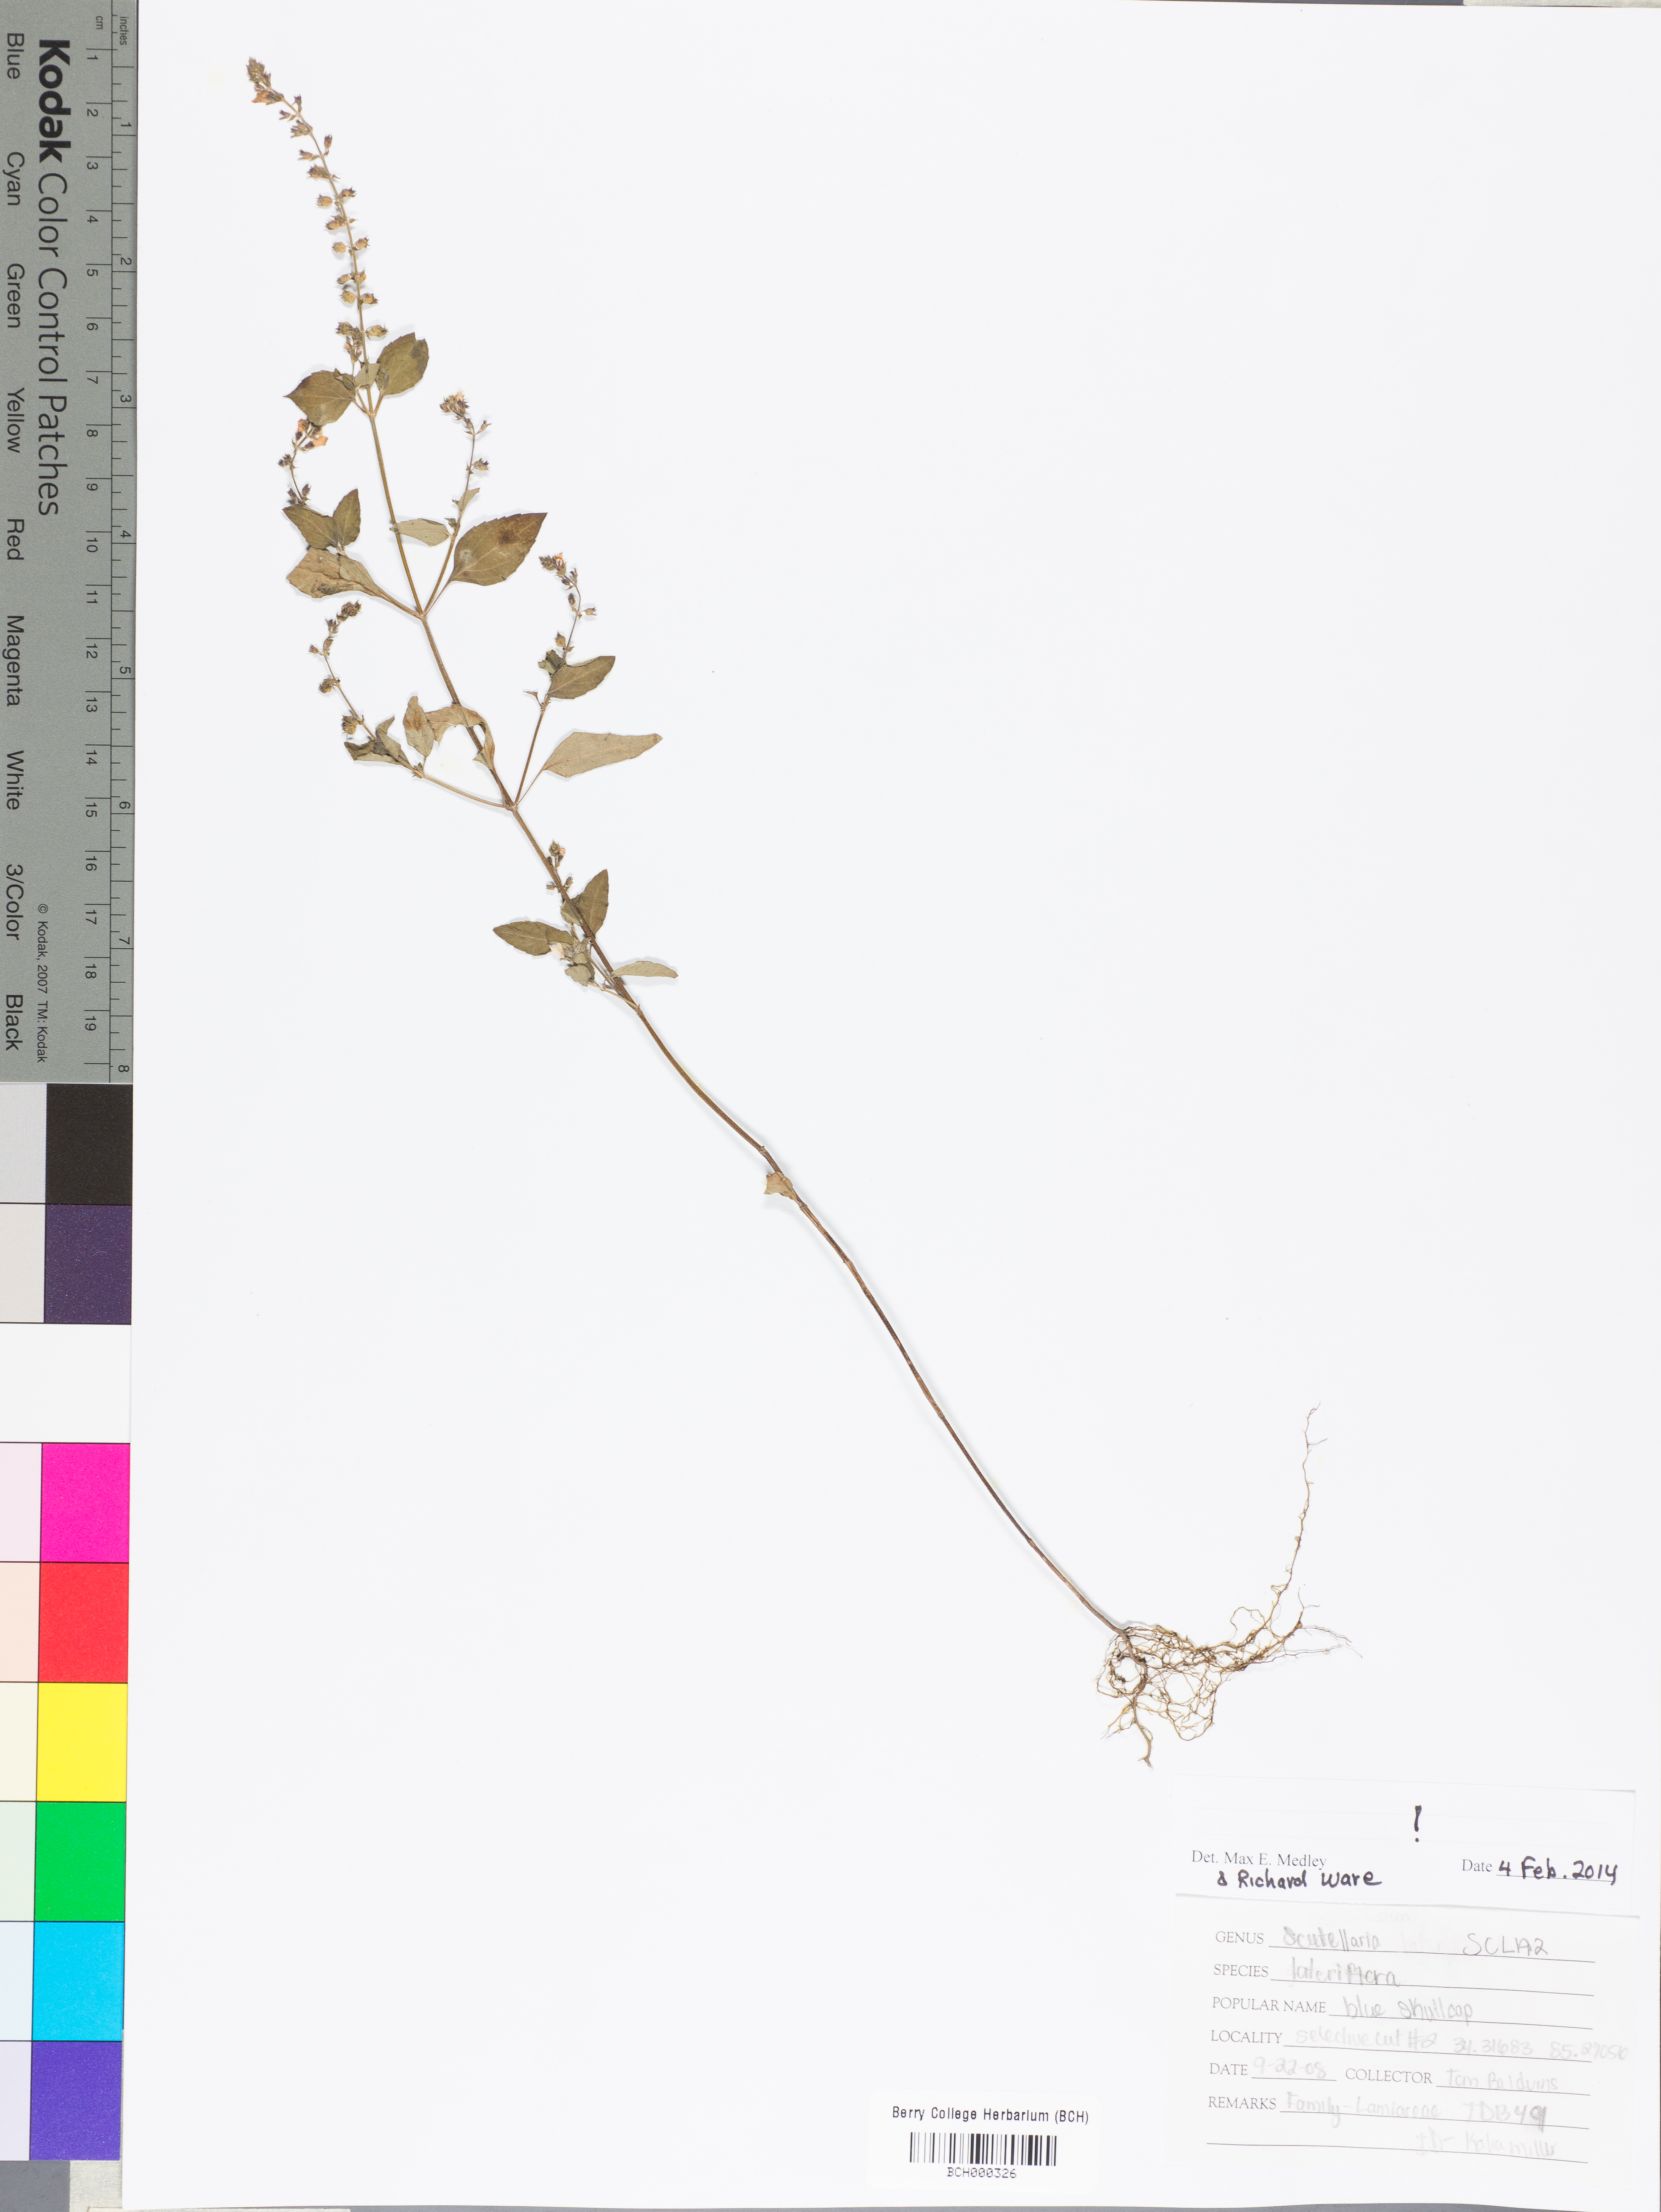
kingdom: Plantae
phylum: Tracheophyta
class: Magnoliopsida
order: Lamiales
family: Lamiaceae
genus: Scutellaria
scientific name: Scutellaria lateriflora
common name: Blue skullcap
